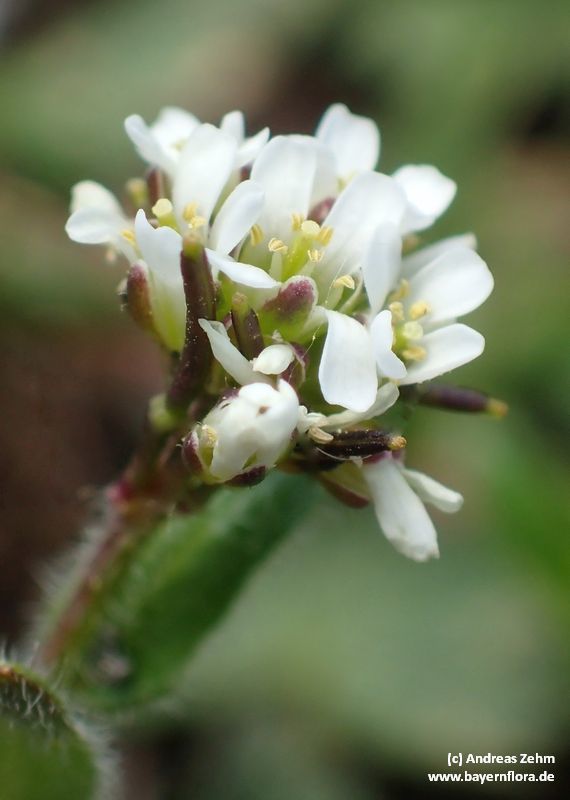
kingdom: Plantae
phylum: Tracheophyta
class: Magnoliopsida
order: Brassicales
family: Brassicaceae
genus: Arabis
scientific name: Arabis ciliata
